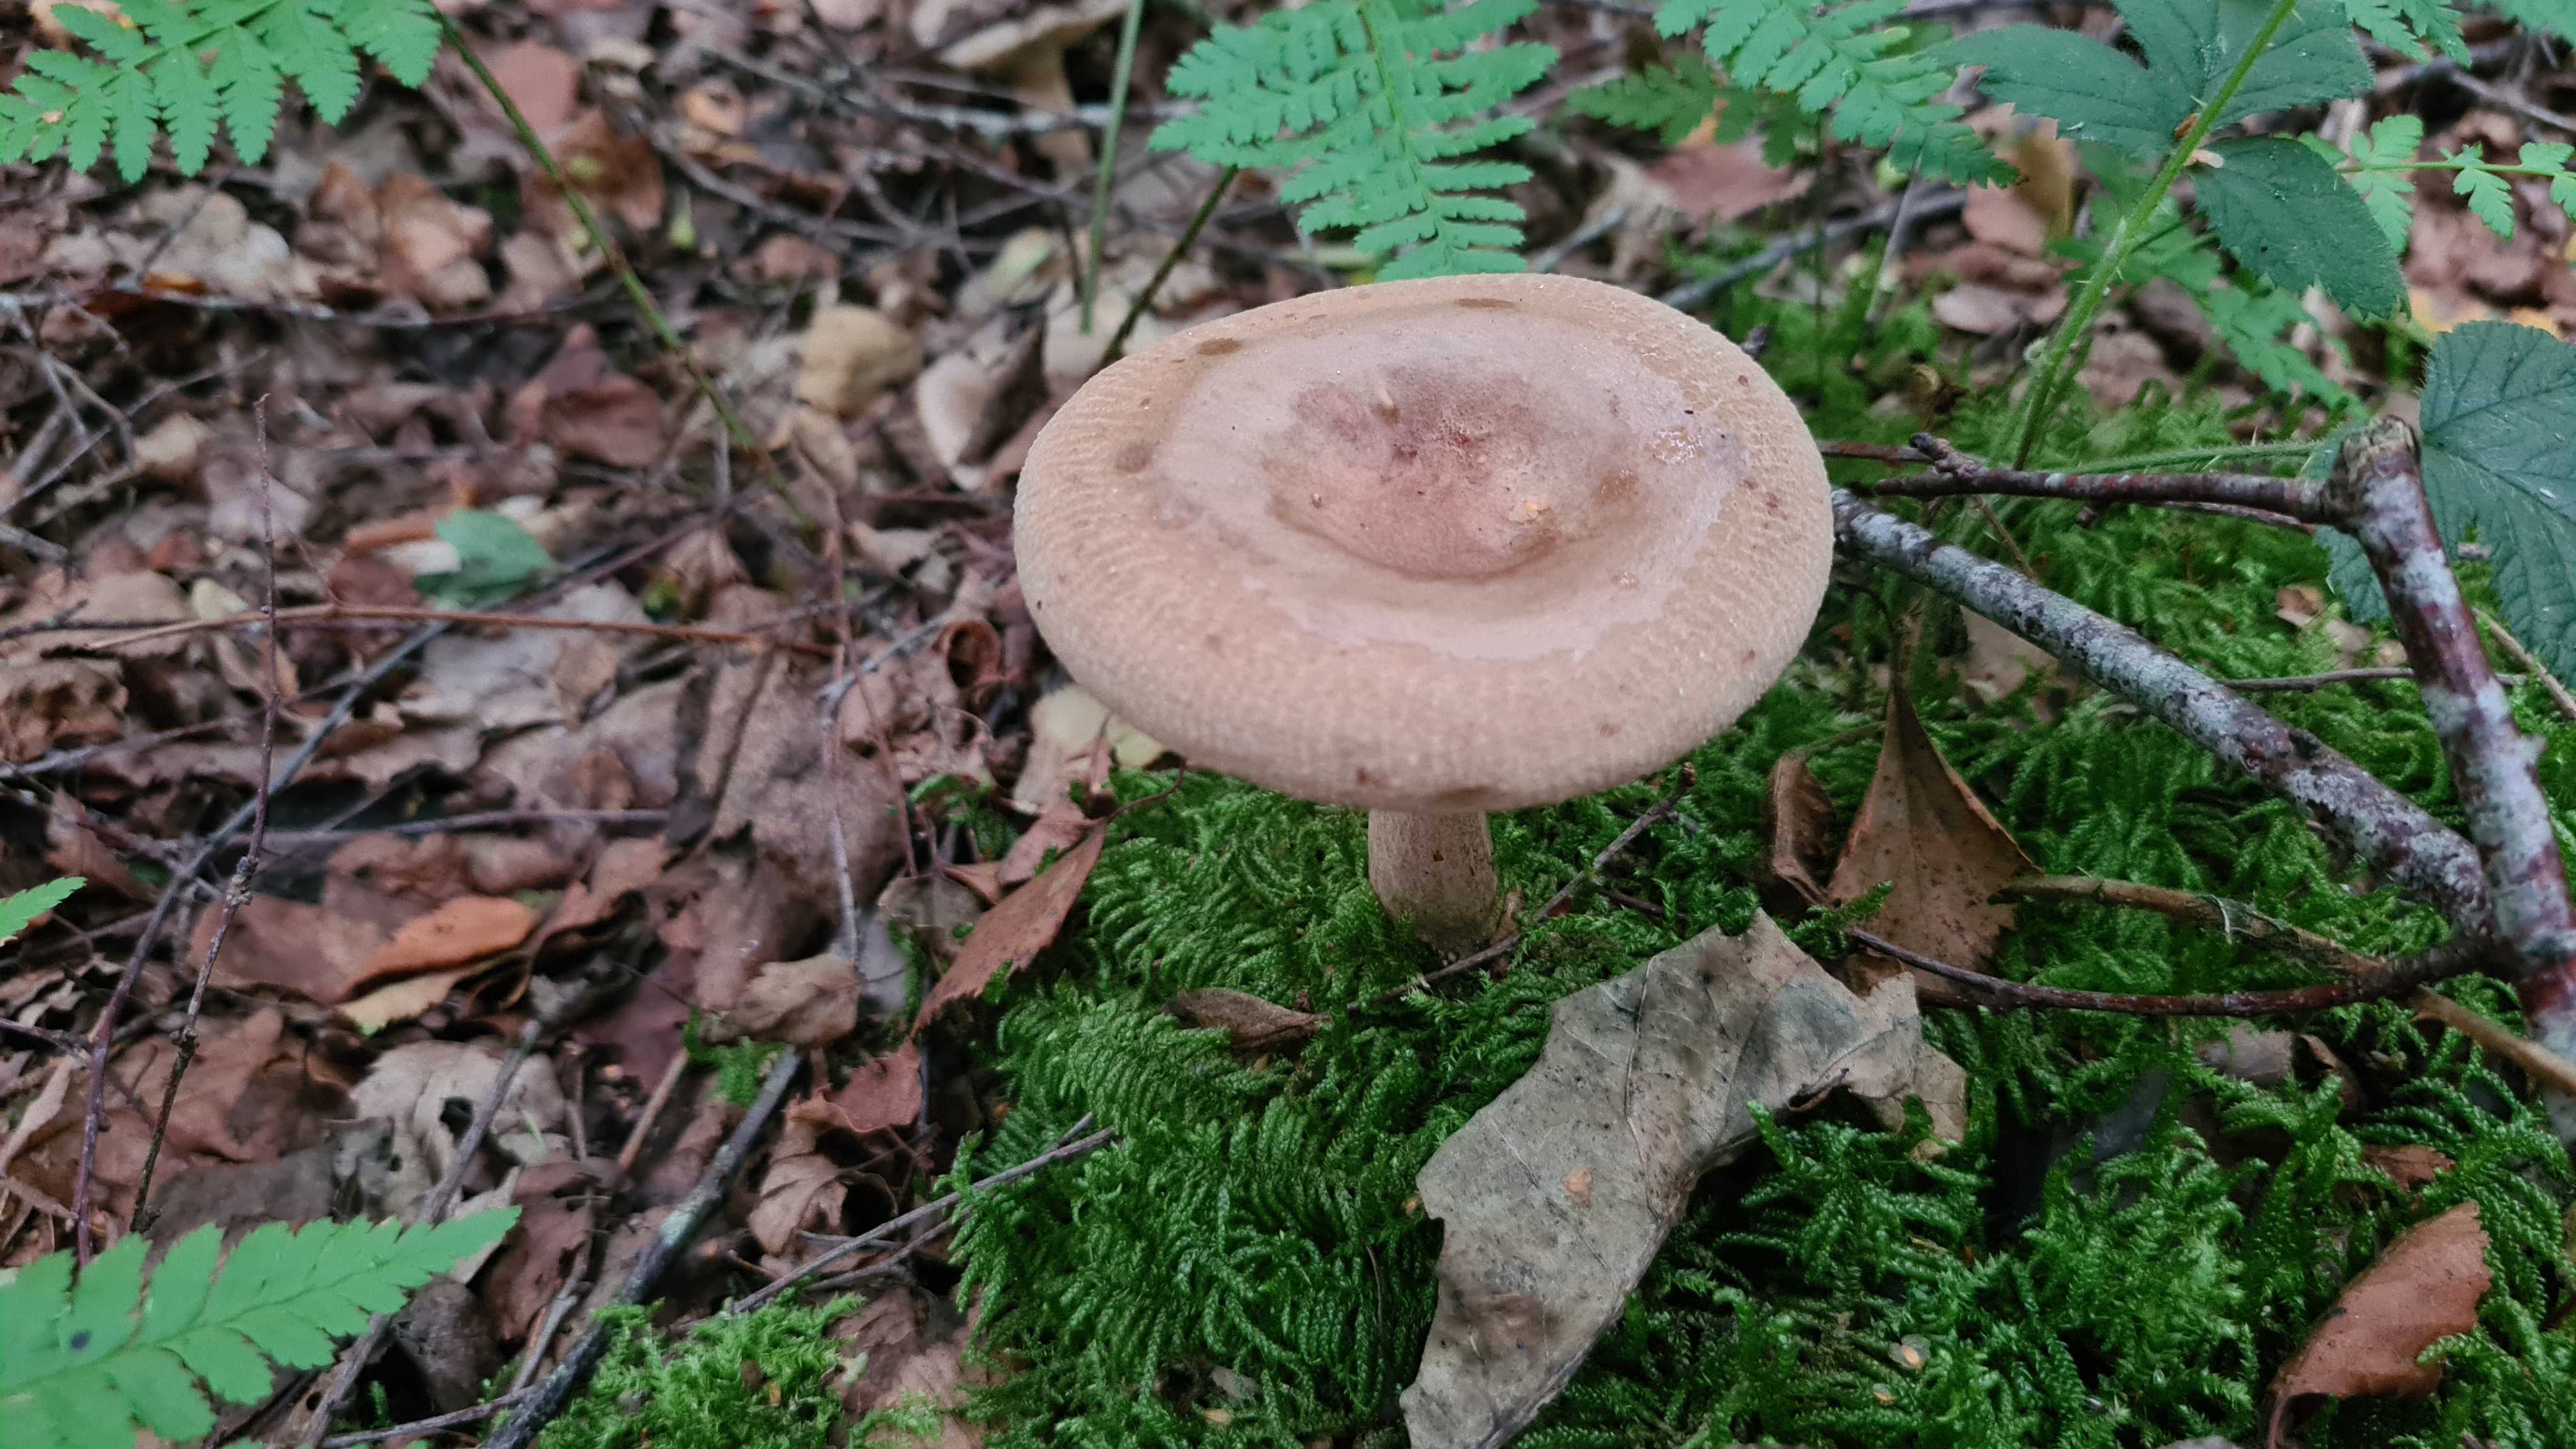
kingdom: Fungi
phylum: Basidiomycota
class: Agaricomycetes
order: Boletales
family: Paxillaceae
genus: Paxillus
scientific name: Paxillus involutus
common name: almindelig netbladhat
